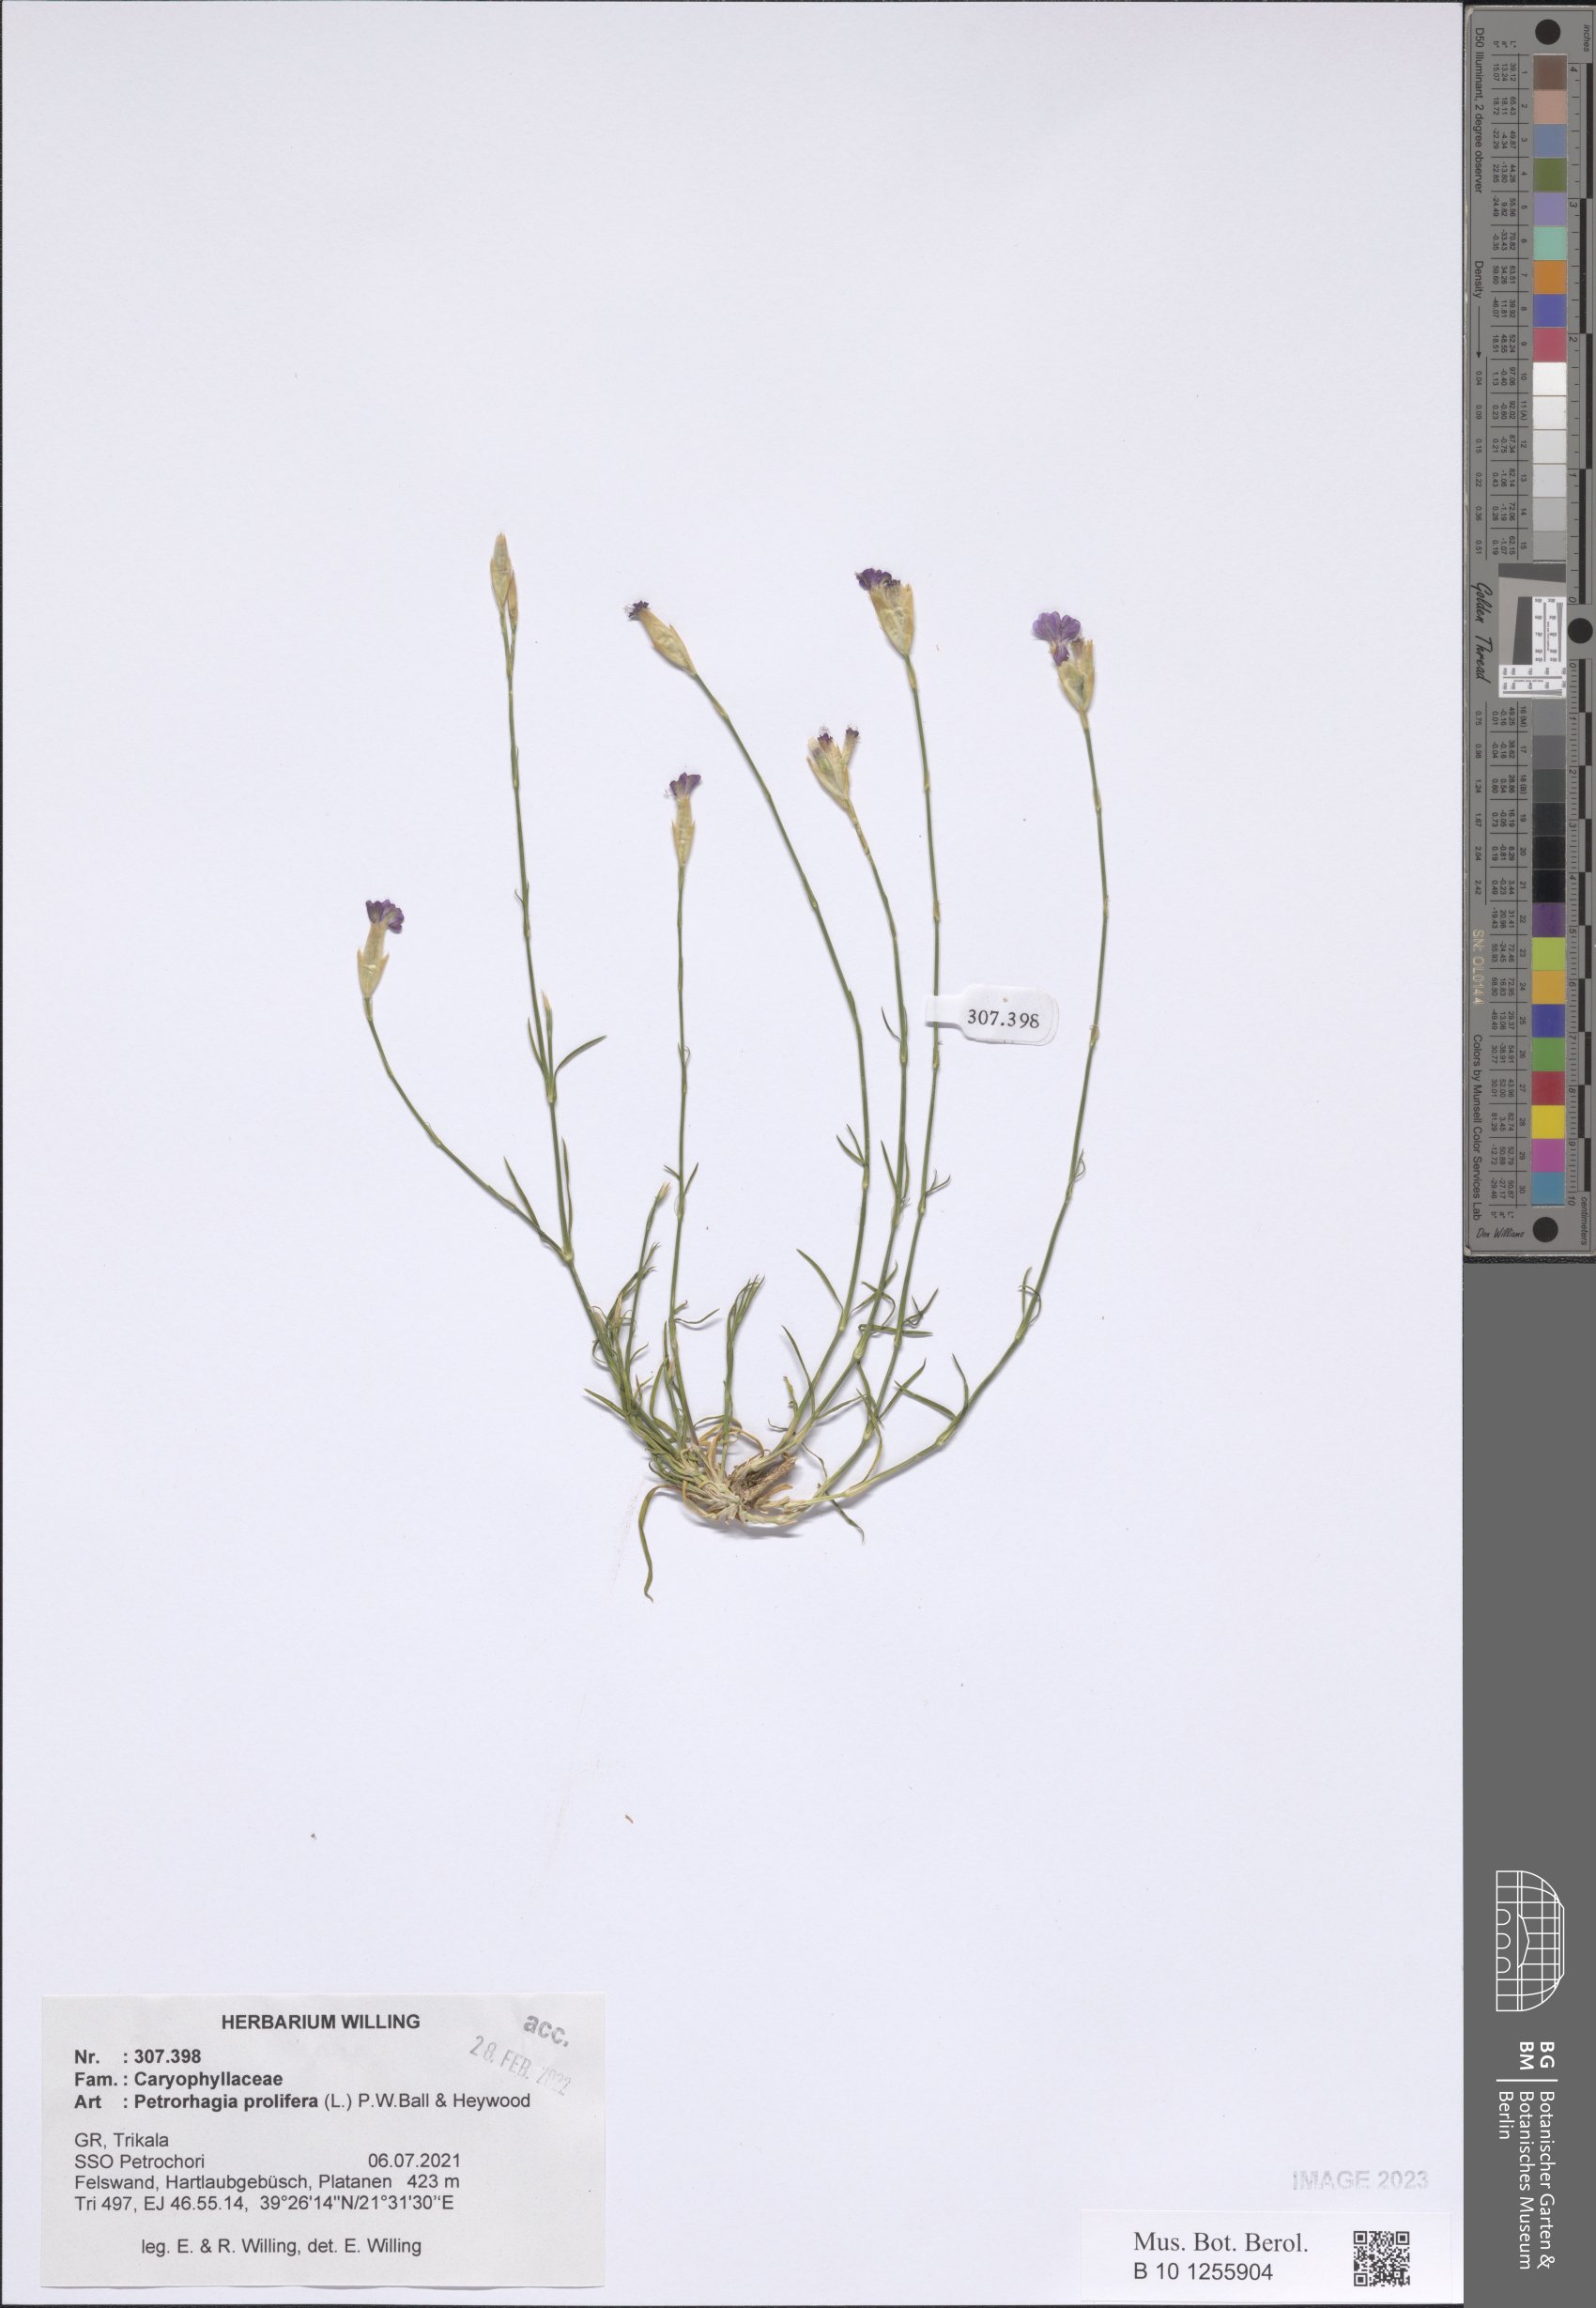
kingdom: Plantae
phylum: Tracheophyta
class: Magnoliopsida
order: Caryophyllales
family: Caryophyllaceae
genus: Petrorhagia
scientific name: Petrorhagia prolifera
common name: Proliferous pink
